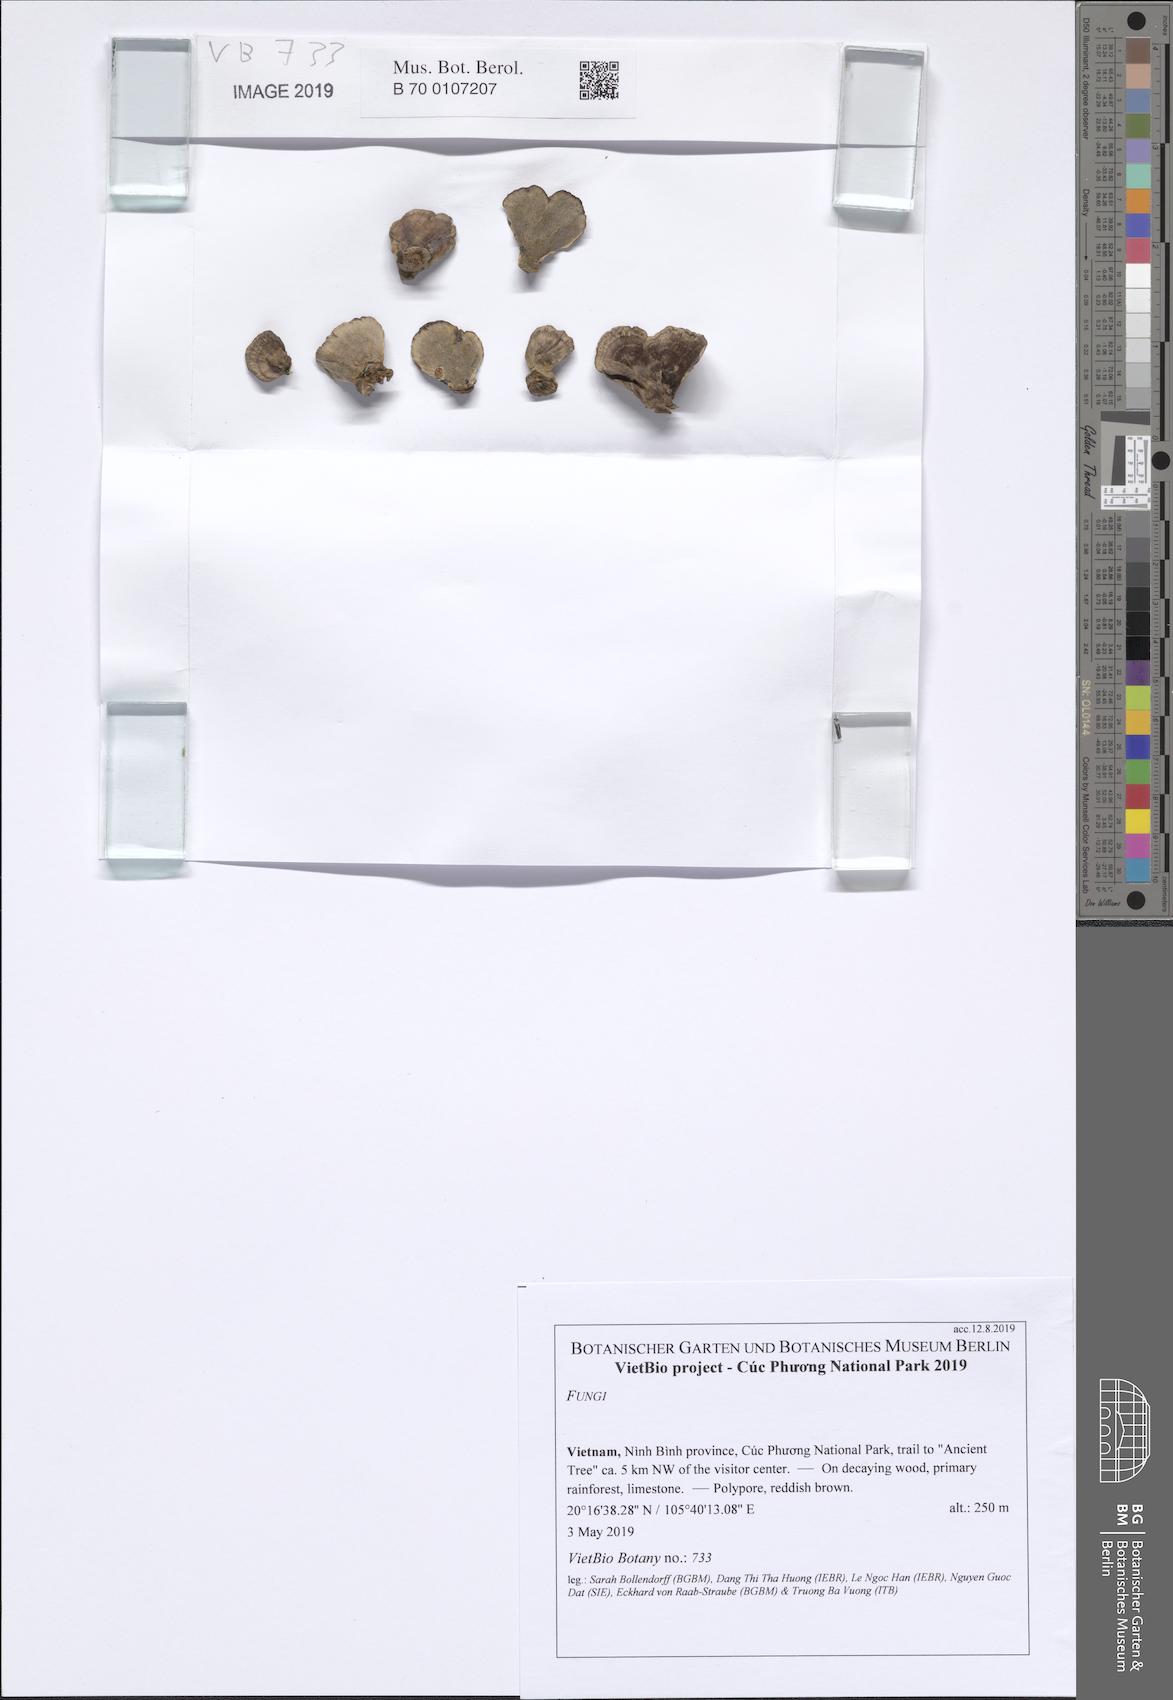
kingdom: Fungi
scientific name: Fungi
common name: Fungi
